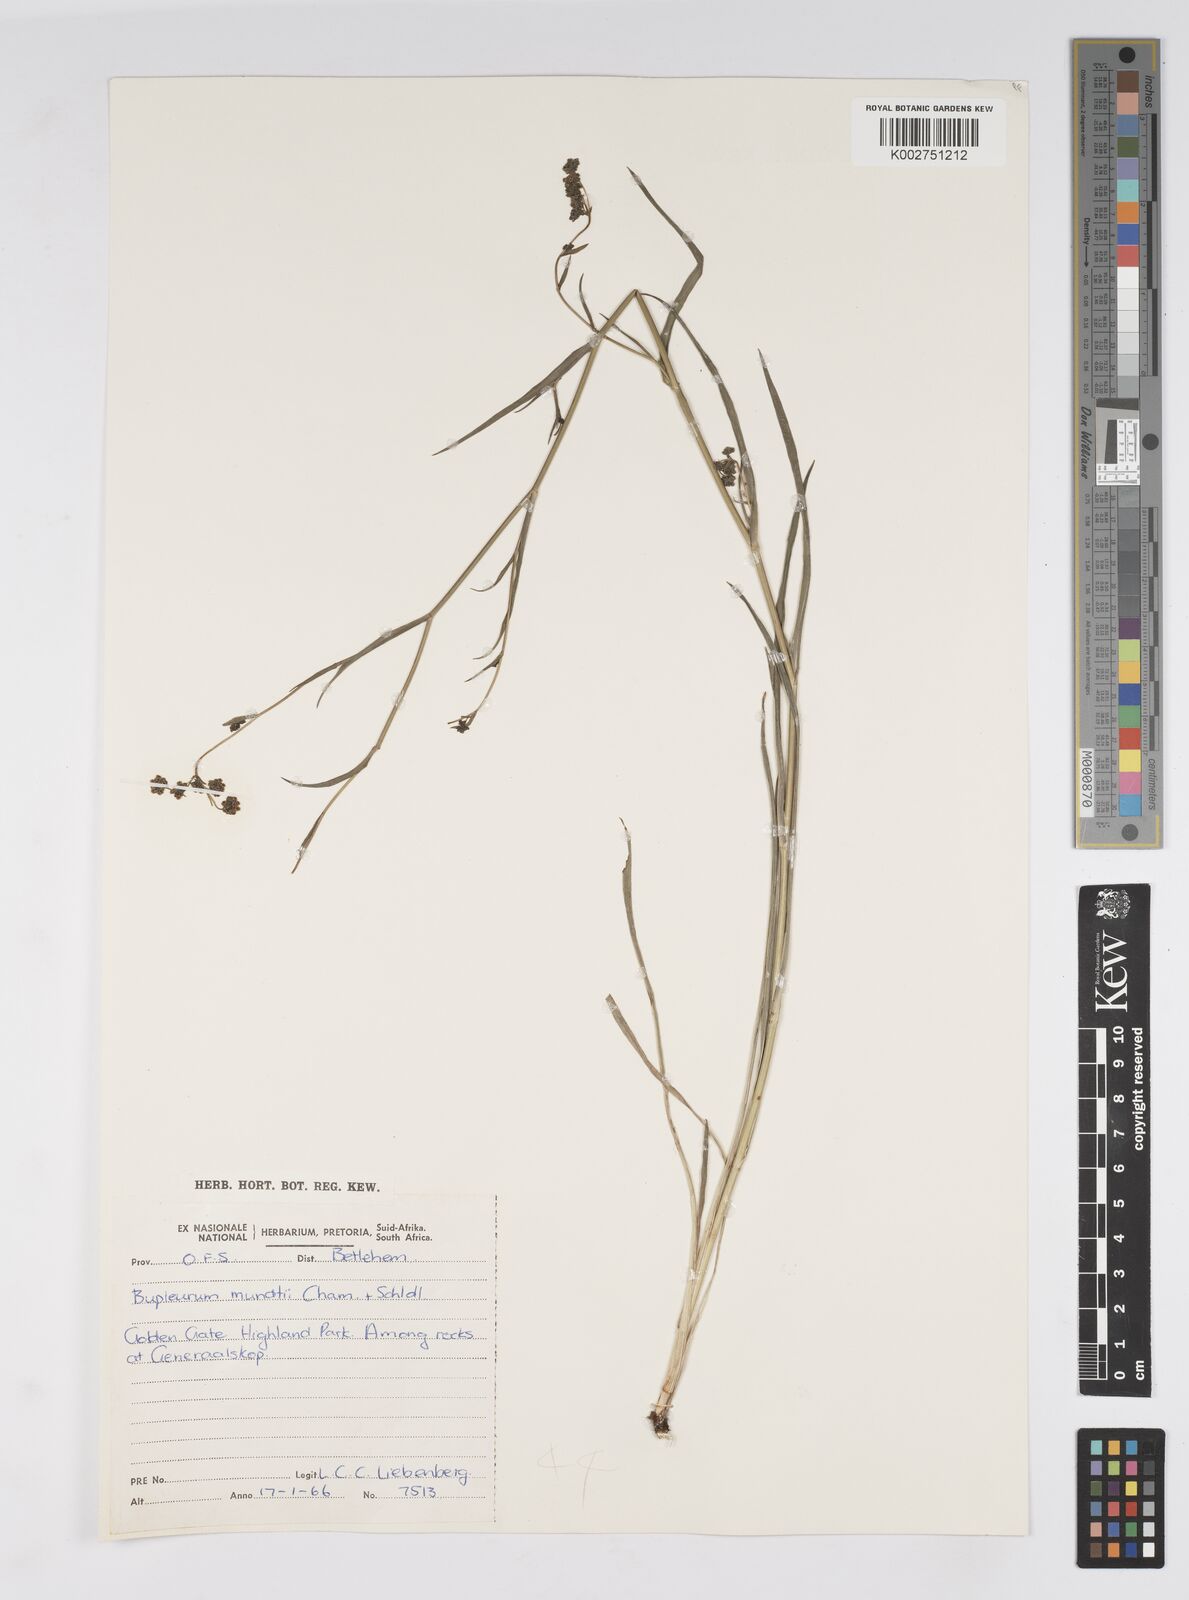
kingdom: Plantae
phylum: Tracheophyta
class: Magnoliopsida
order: Apiales
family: Apiaceae
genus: Bupleurum
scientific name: Bupleurum mundii
